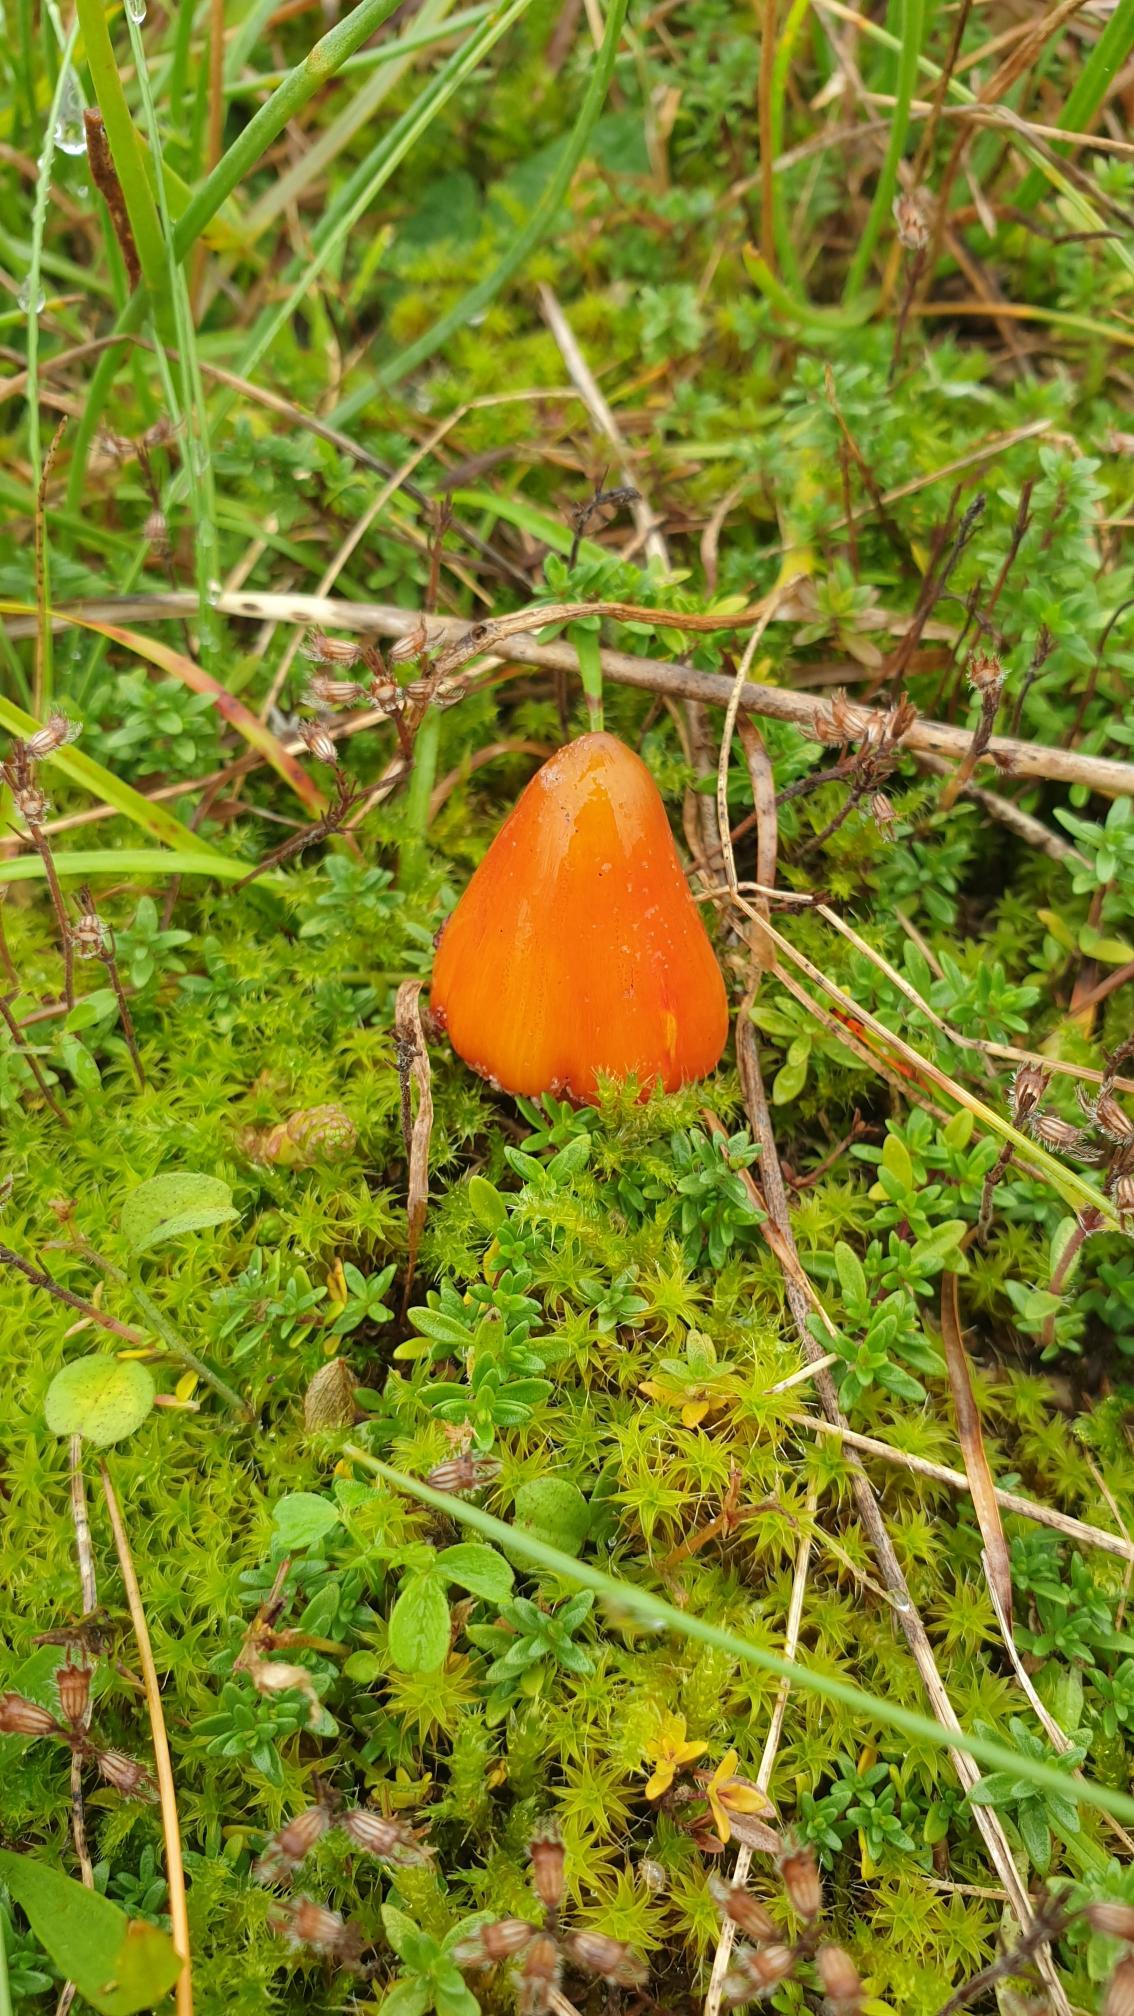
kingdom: Fungi
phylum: Basidiomycota
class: Agaricomycetes
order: Agaricales
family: Hygrophoraceae
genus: Hygrocybe
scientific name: Hygrocybe conica
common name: Kegle-vokshat
